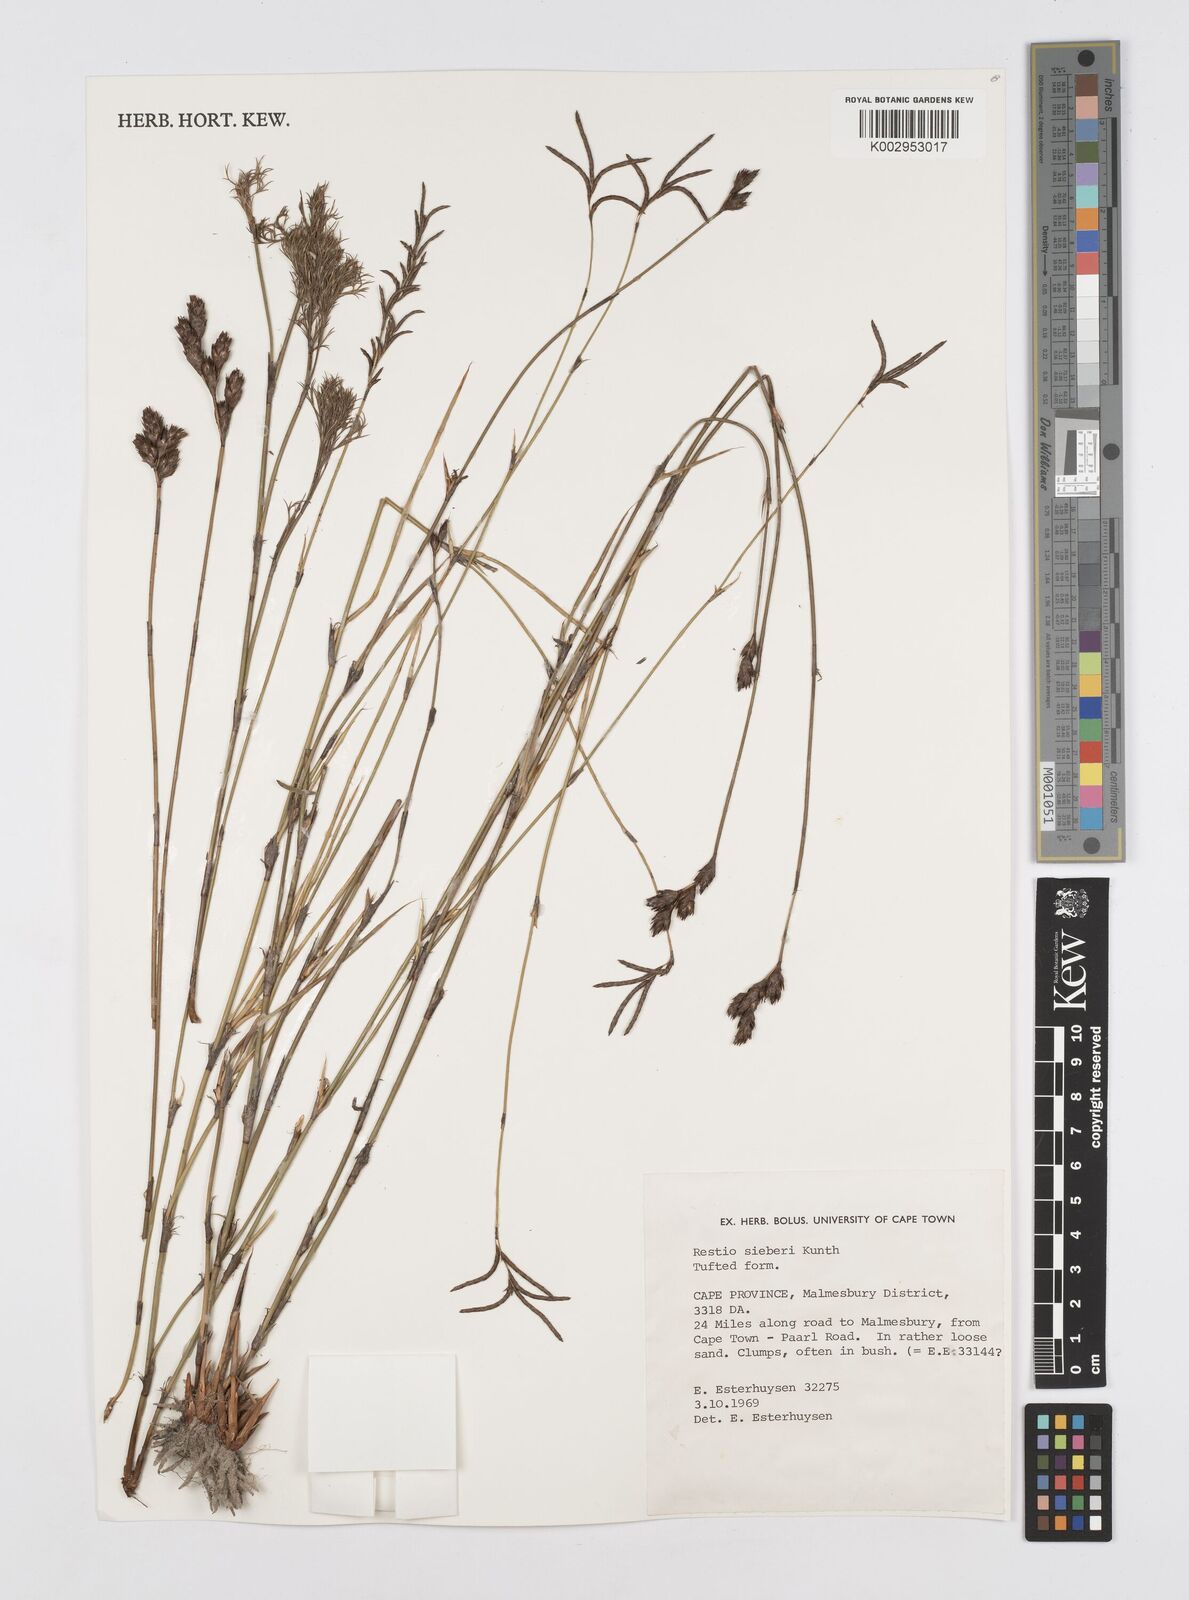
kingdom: Plantae
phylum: Tracheophyta
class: Liliopsida
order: Poales
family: Restionaceae
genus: Restio
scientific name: Restio sieberi
